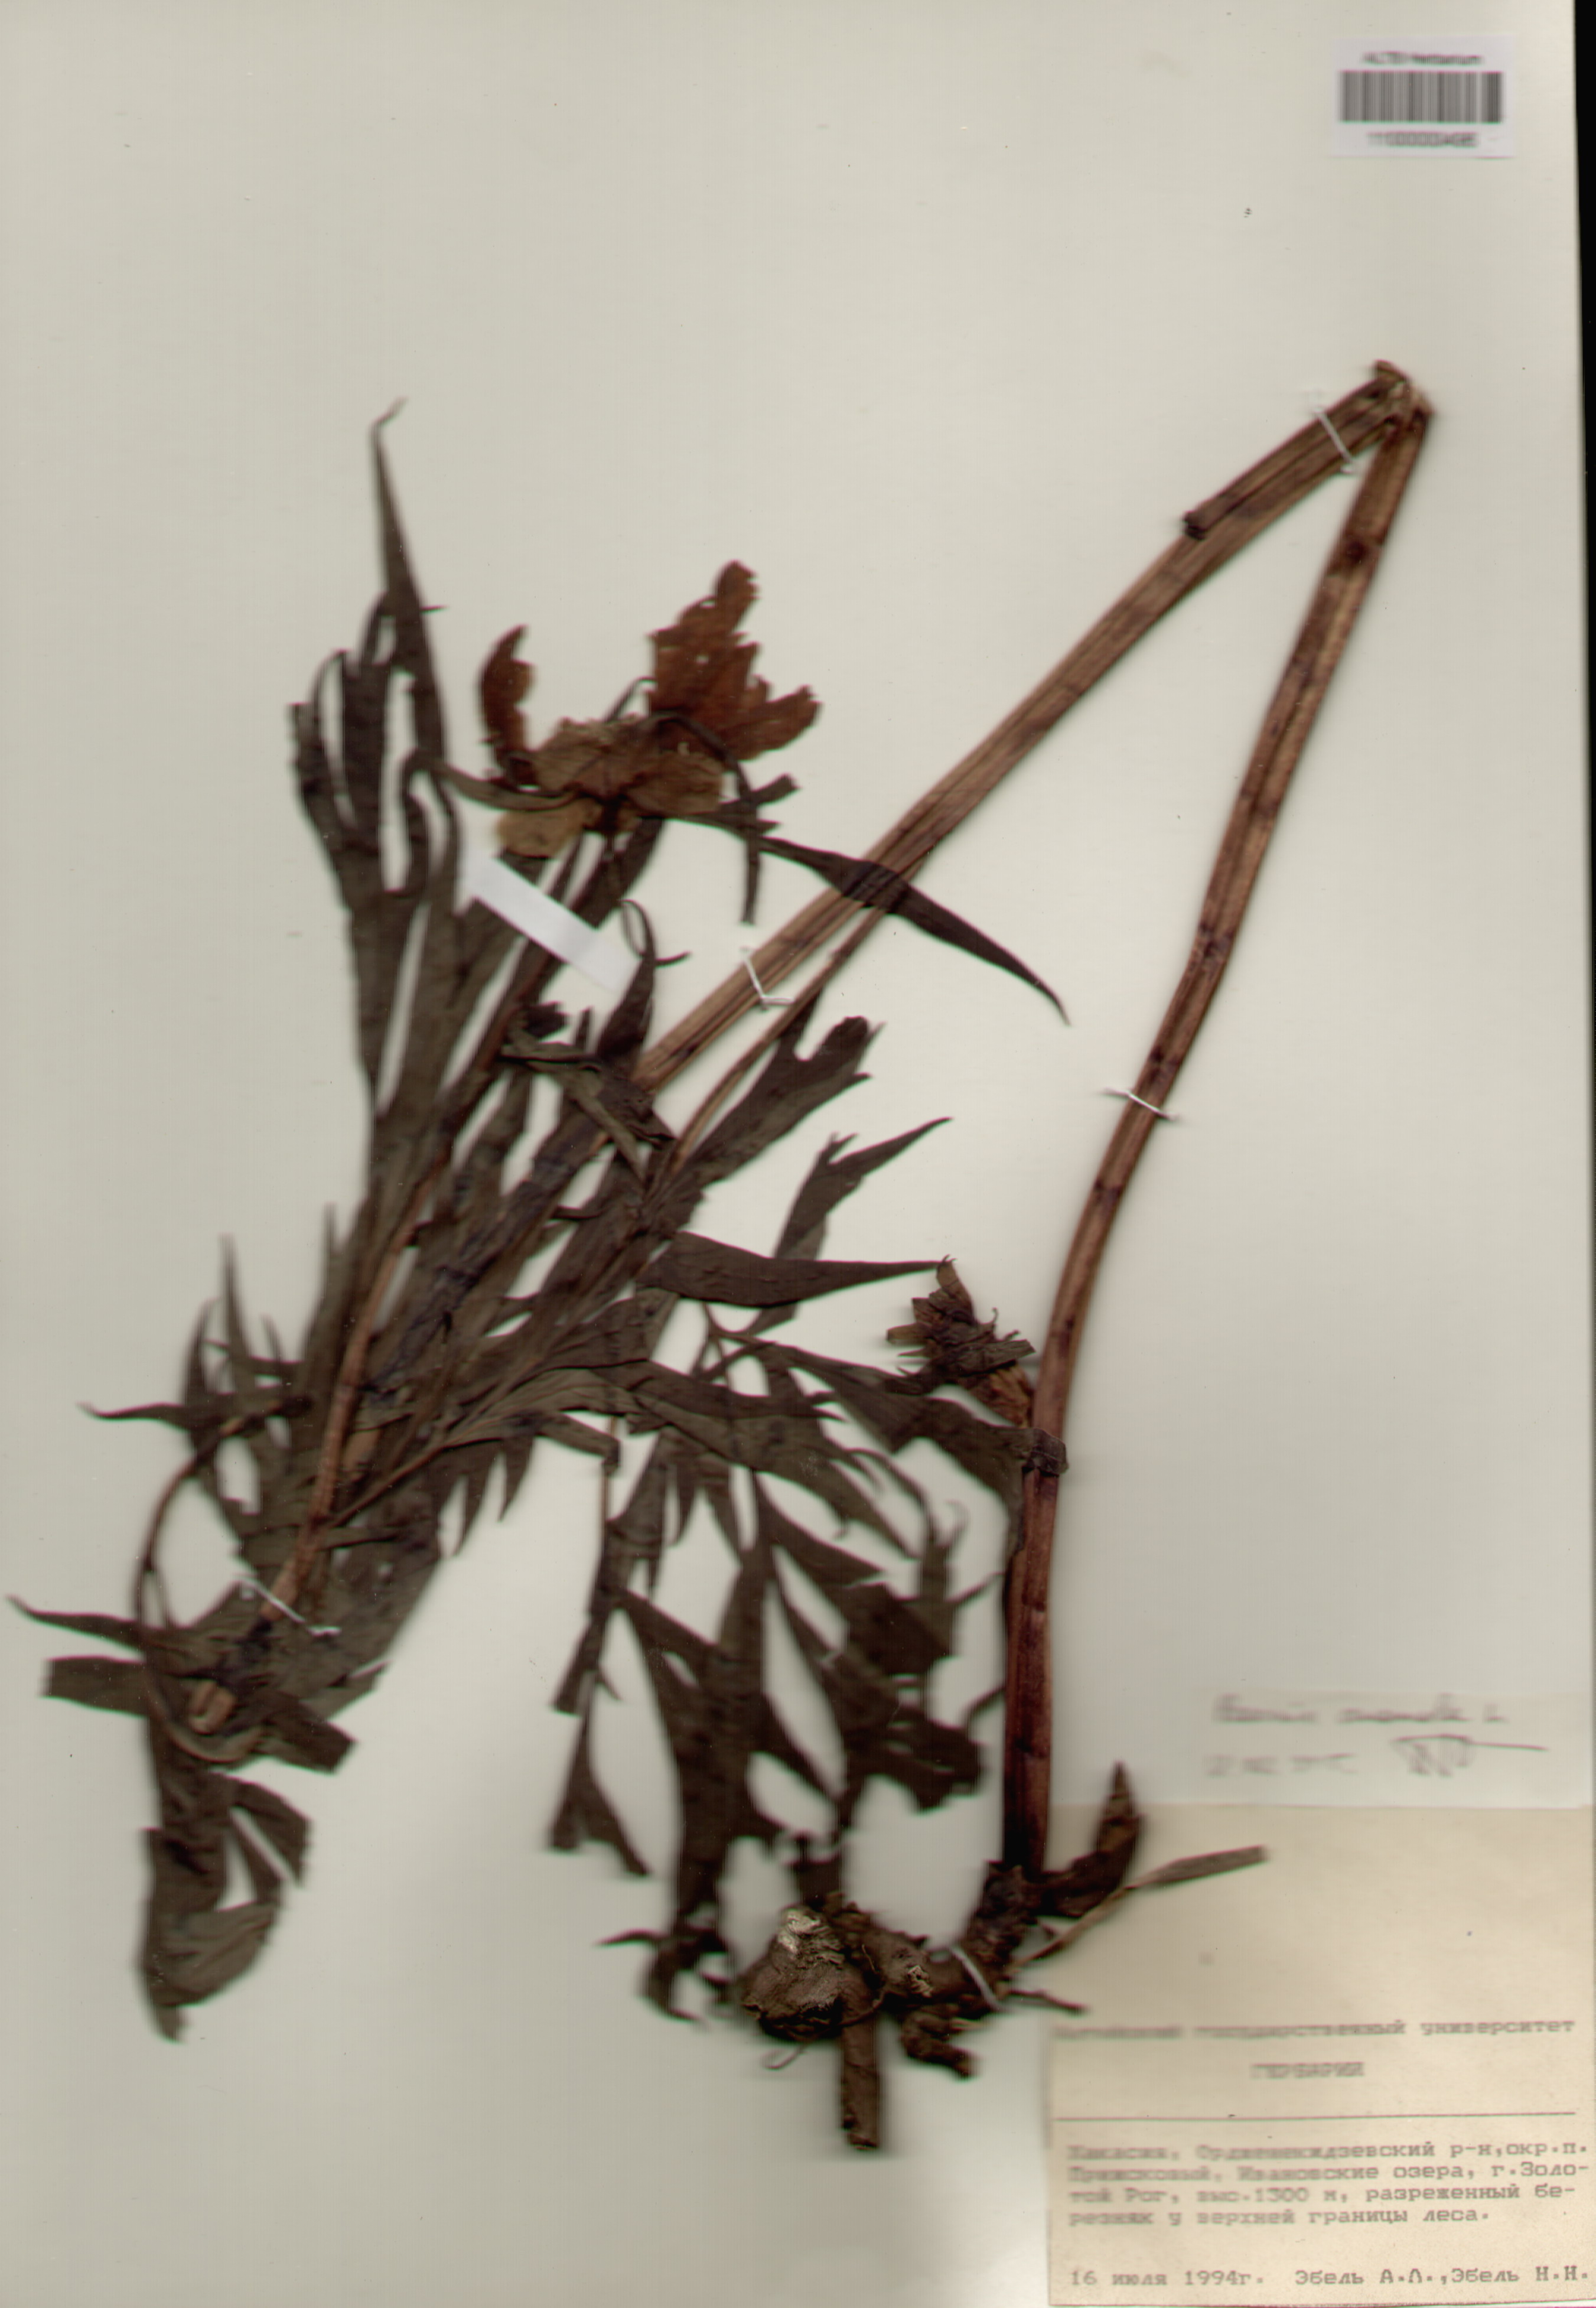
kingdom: Plantae
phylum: Tracheophyta
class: Magnoliopsida
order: Saxifragales
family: Paeoniaceae
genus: Paeonia
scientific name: Paeonia anomala
